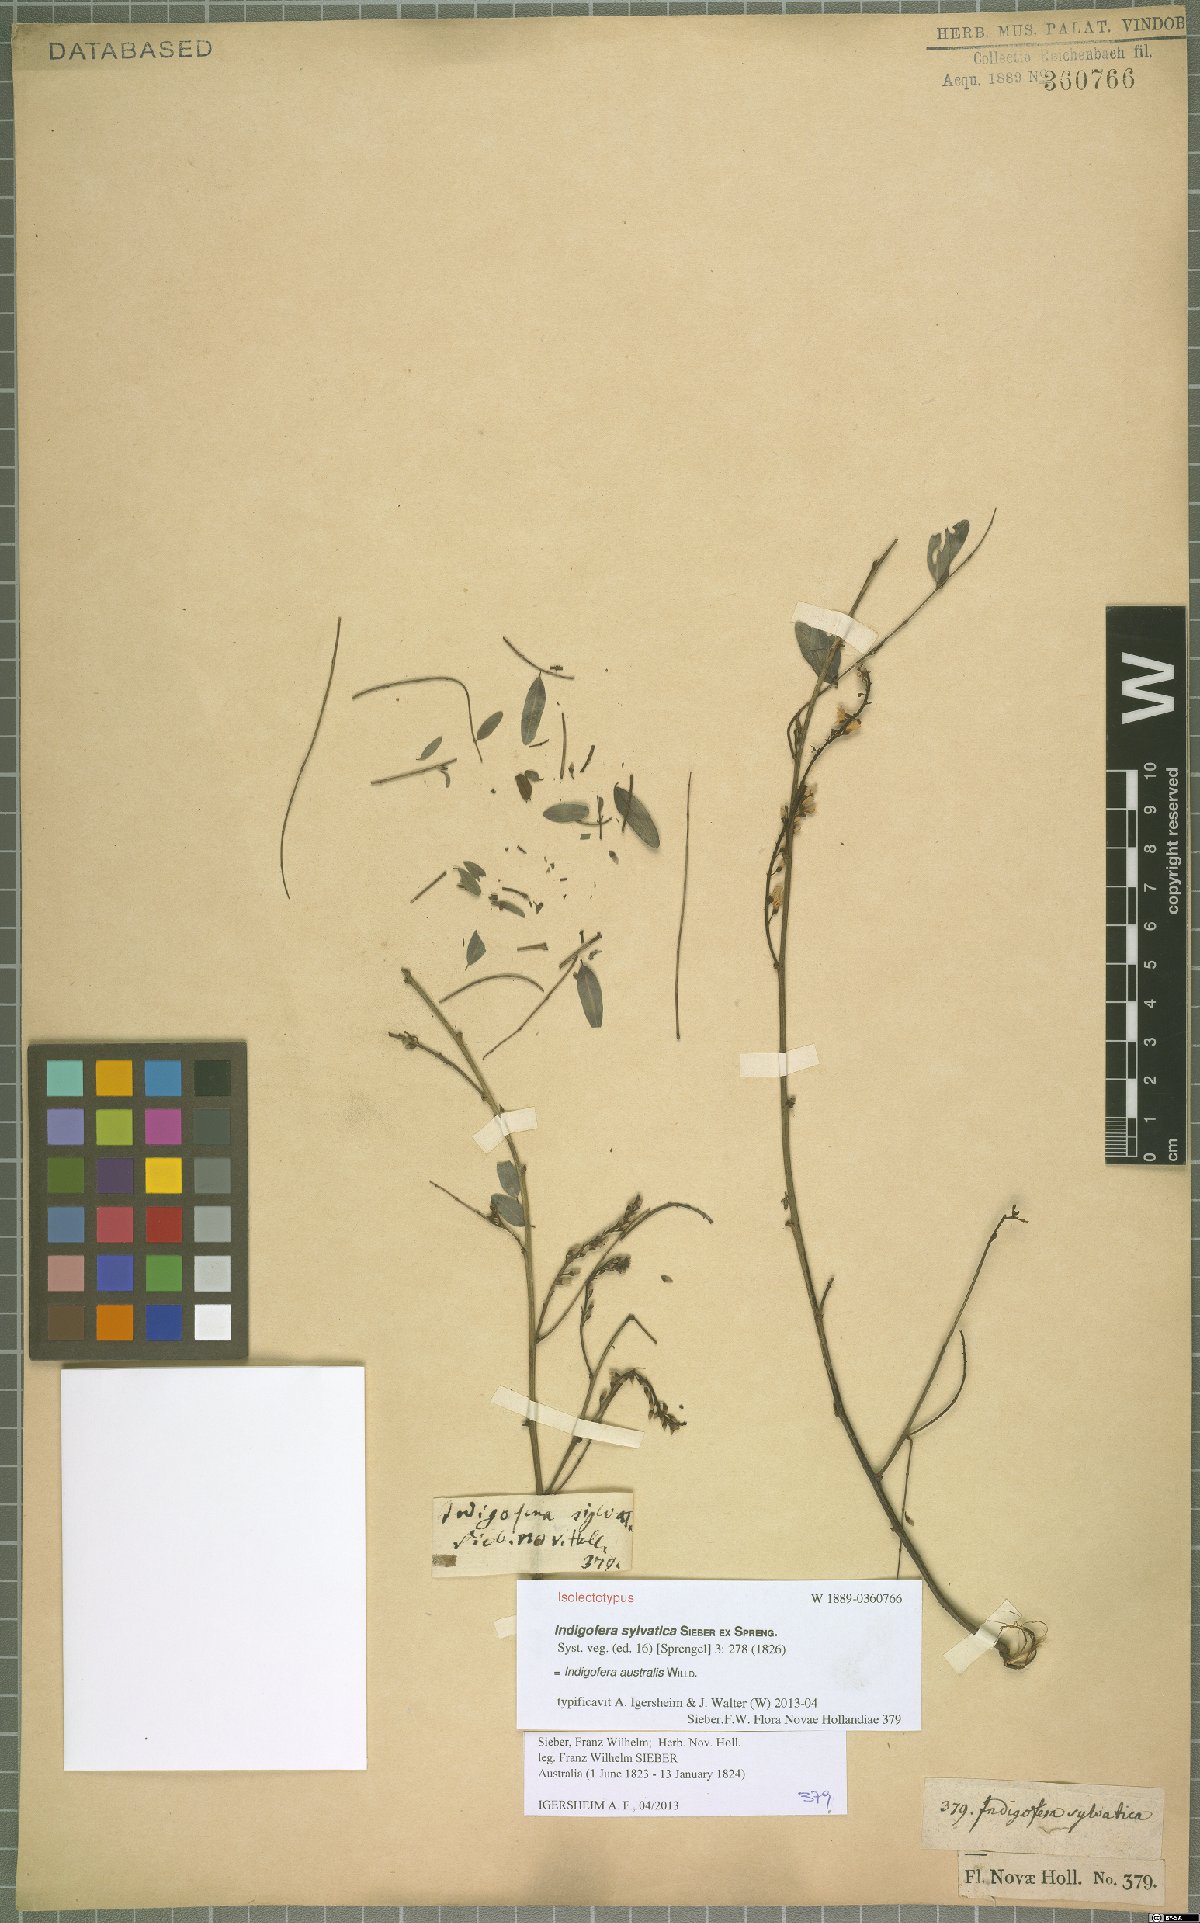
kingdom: Plantae
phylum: Tracheophyta
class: Magnoliopsida
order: Fabales
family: Fabaceae
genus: Indigofera
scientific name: Indigofera australis
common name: Australian indigo
